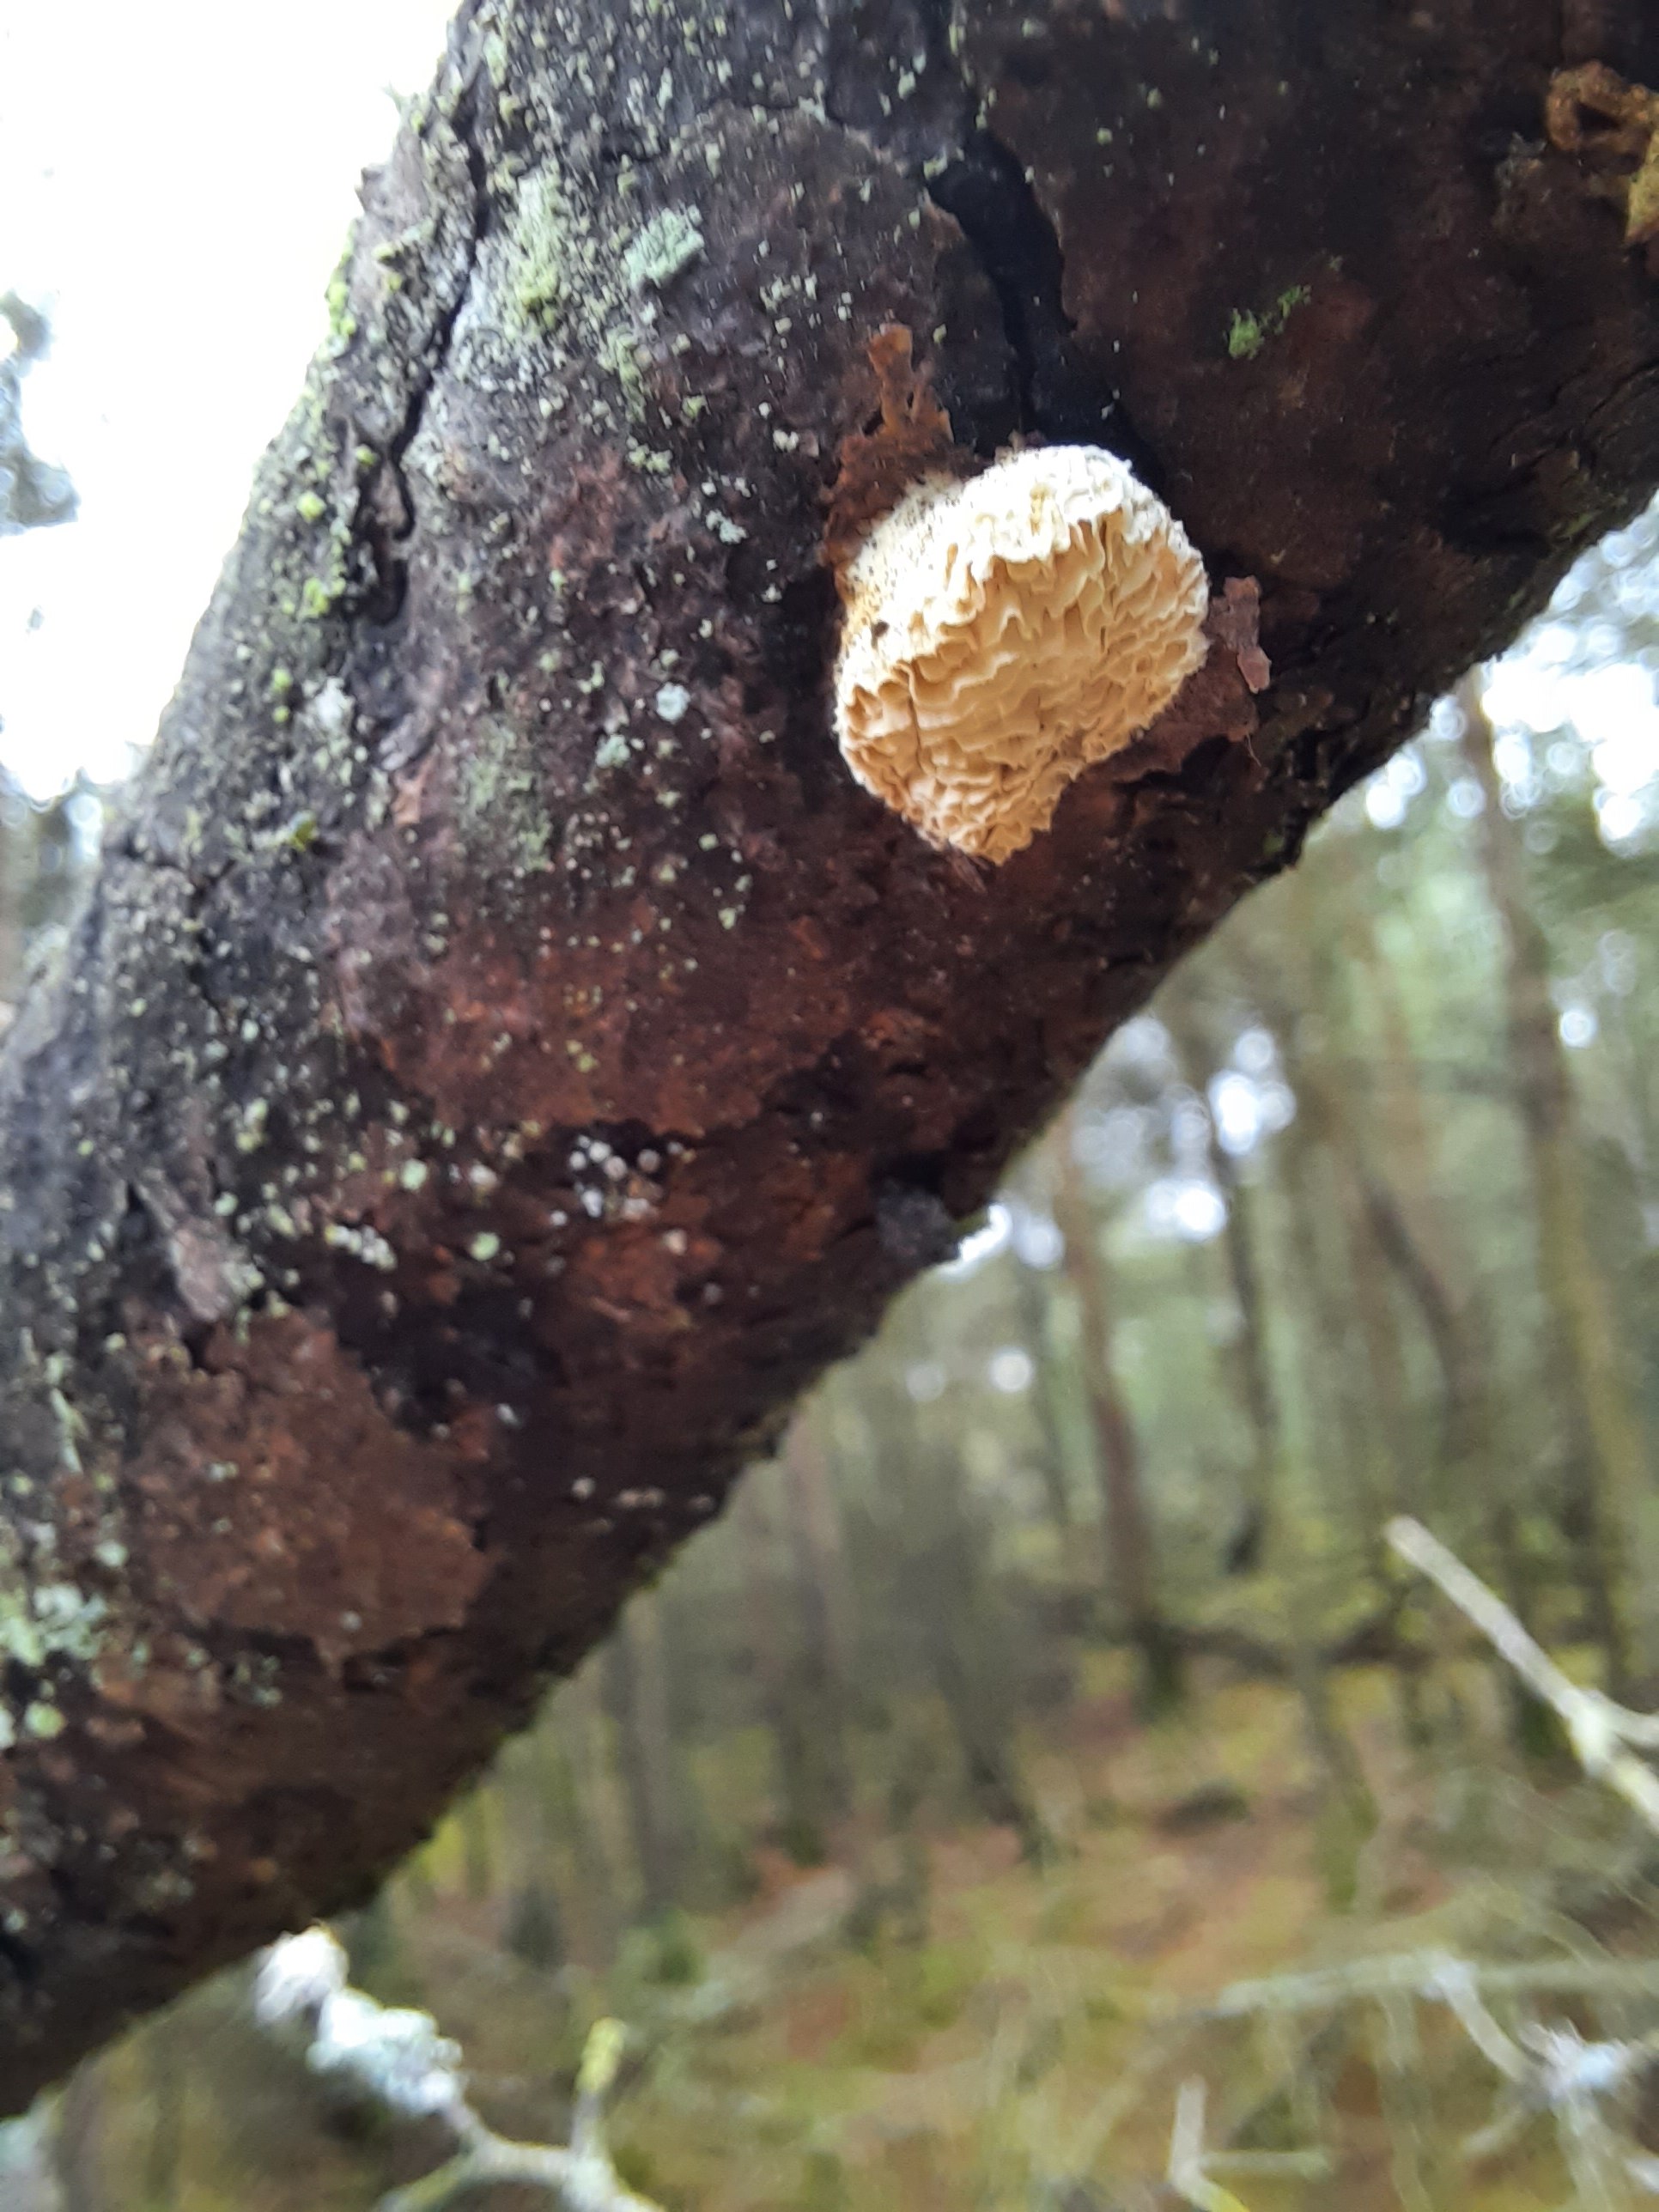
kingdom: Fungi
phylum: Basidiomycota
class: Agaricomycetes
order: Polyporales
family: Fomitopsidaceae
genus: Fomitopsis
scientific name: Fomitopsis
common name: fyrre-skiveporesvamp
